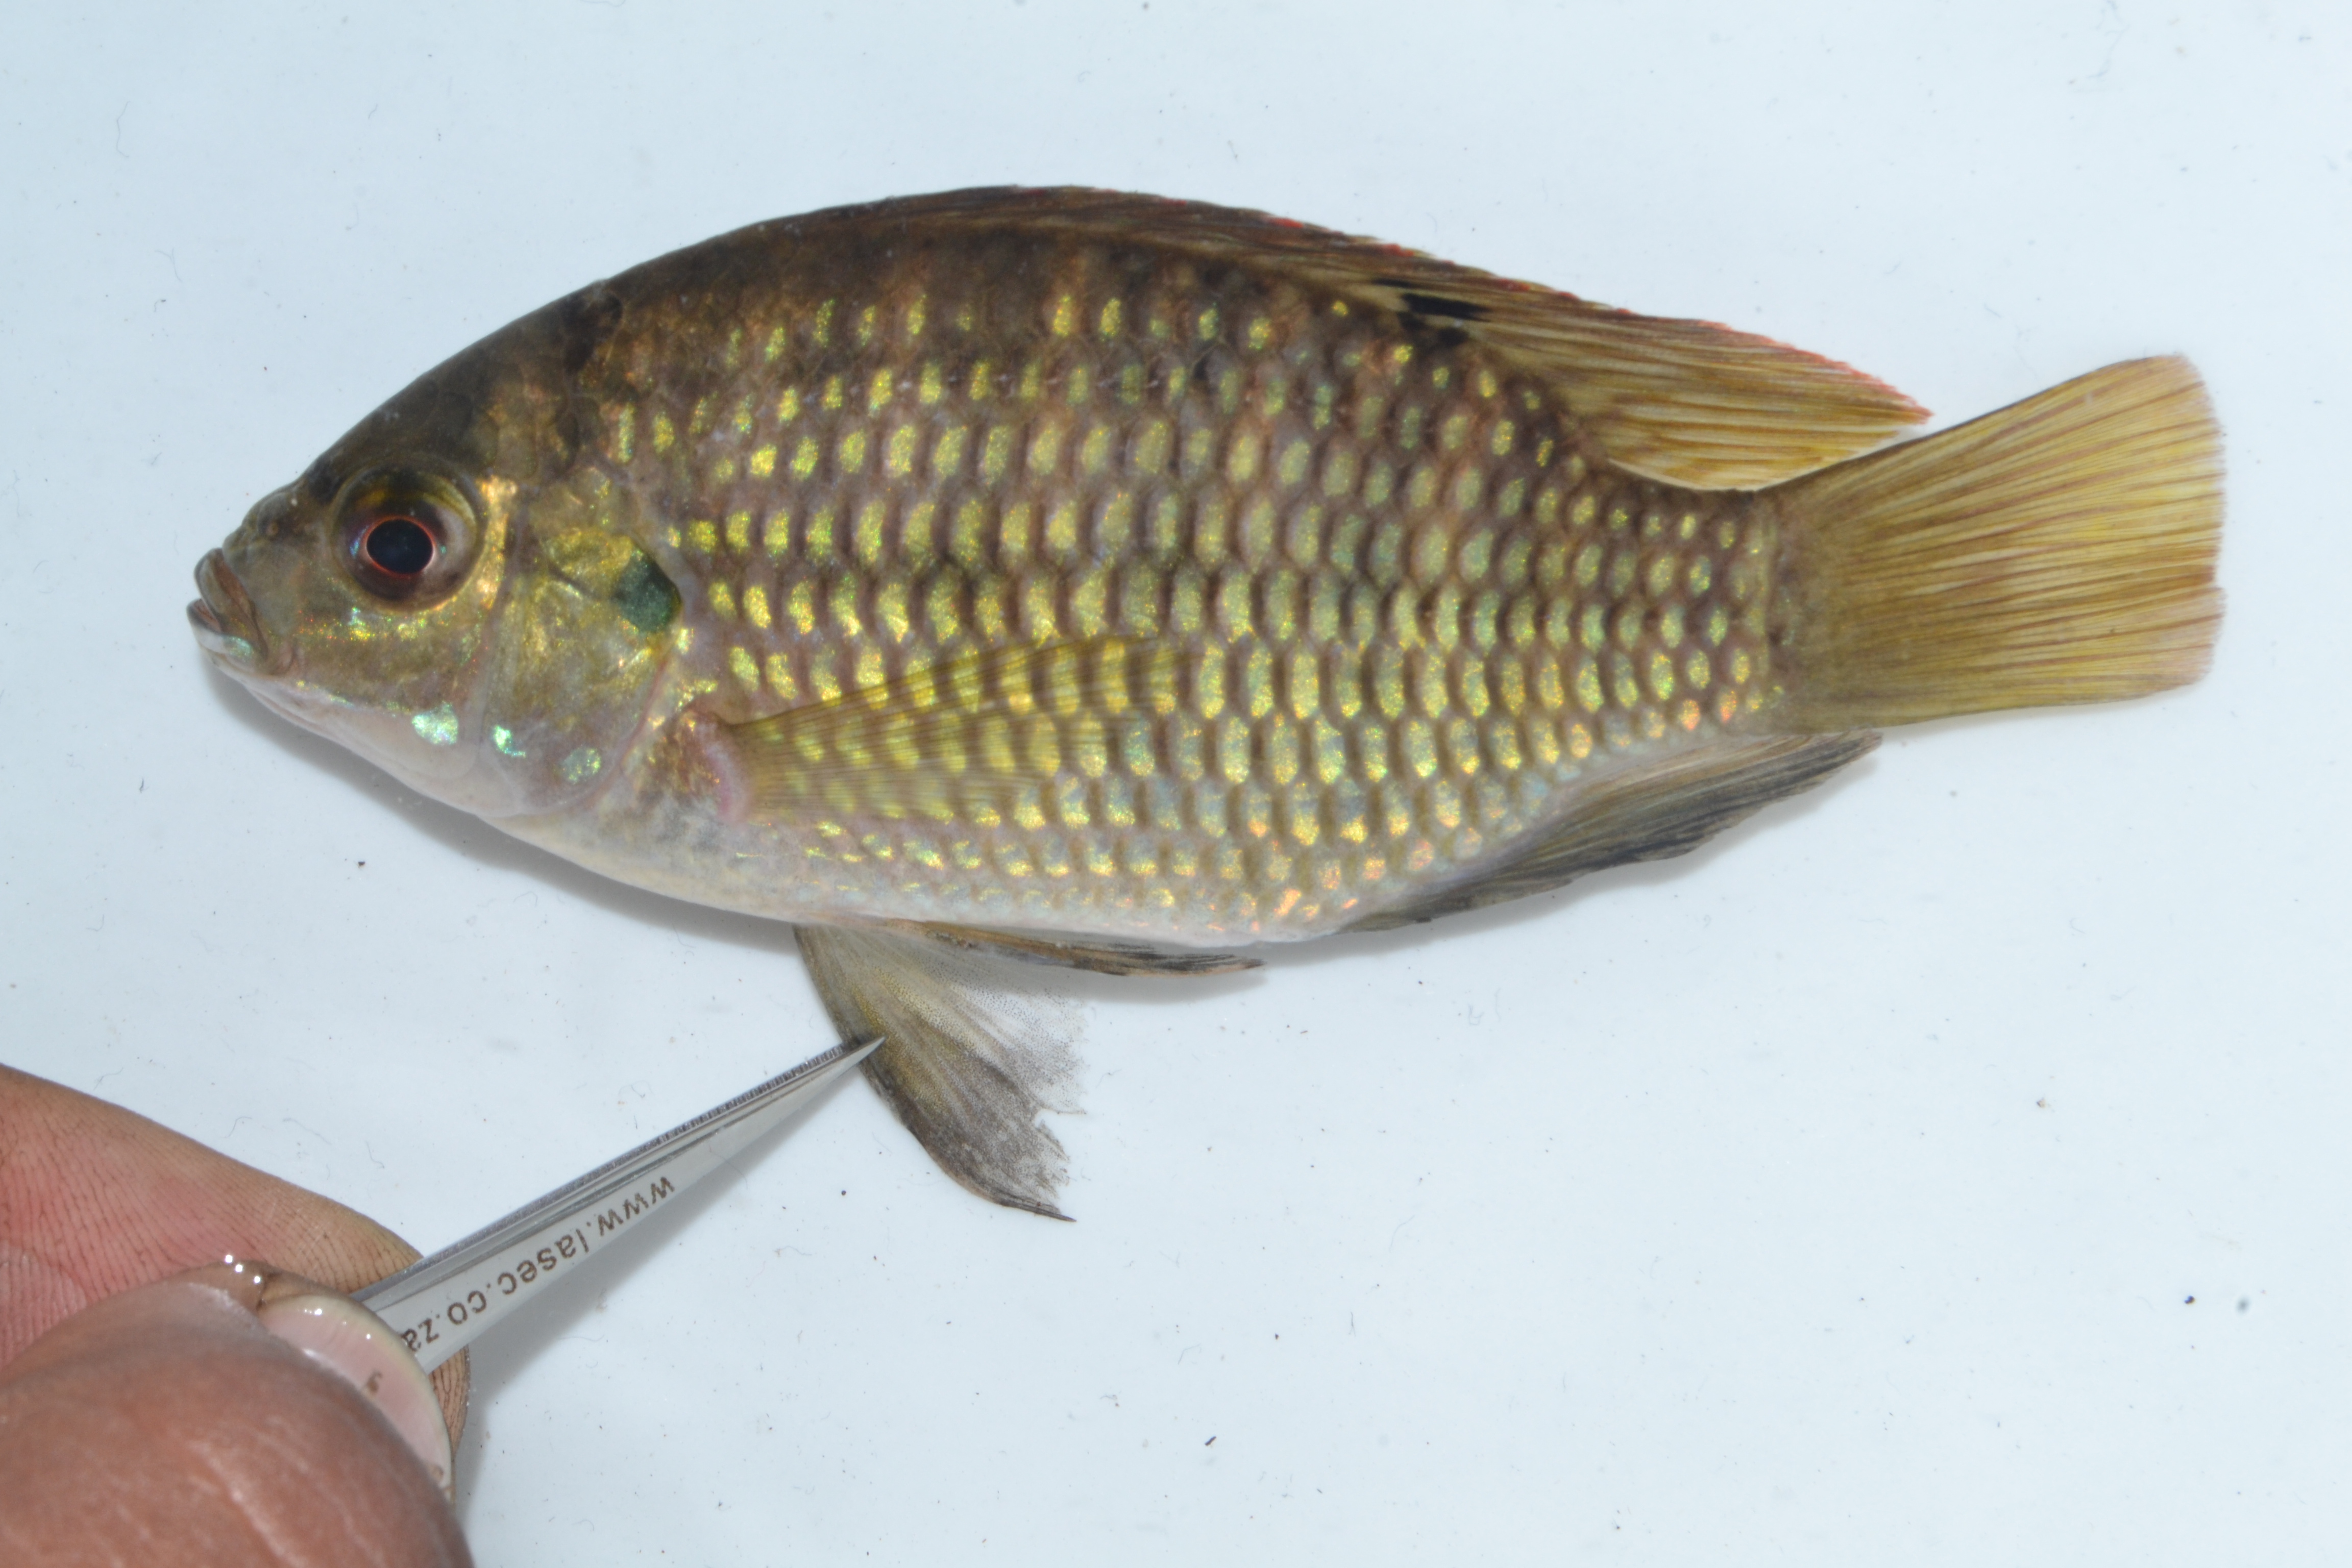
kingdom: Animalia
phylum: Chordata
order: Perciformes
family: Cichlidae
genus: Tilapia
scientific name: Tilapia sparrmanii
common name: Banded tilapia
